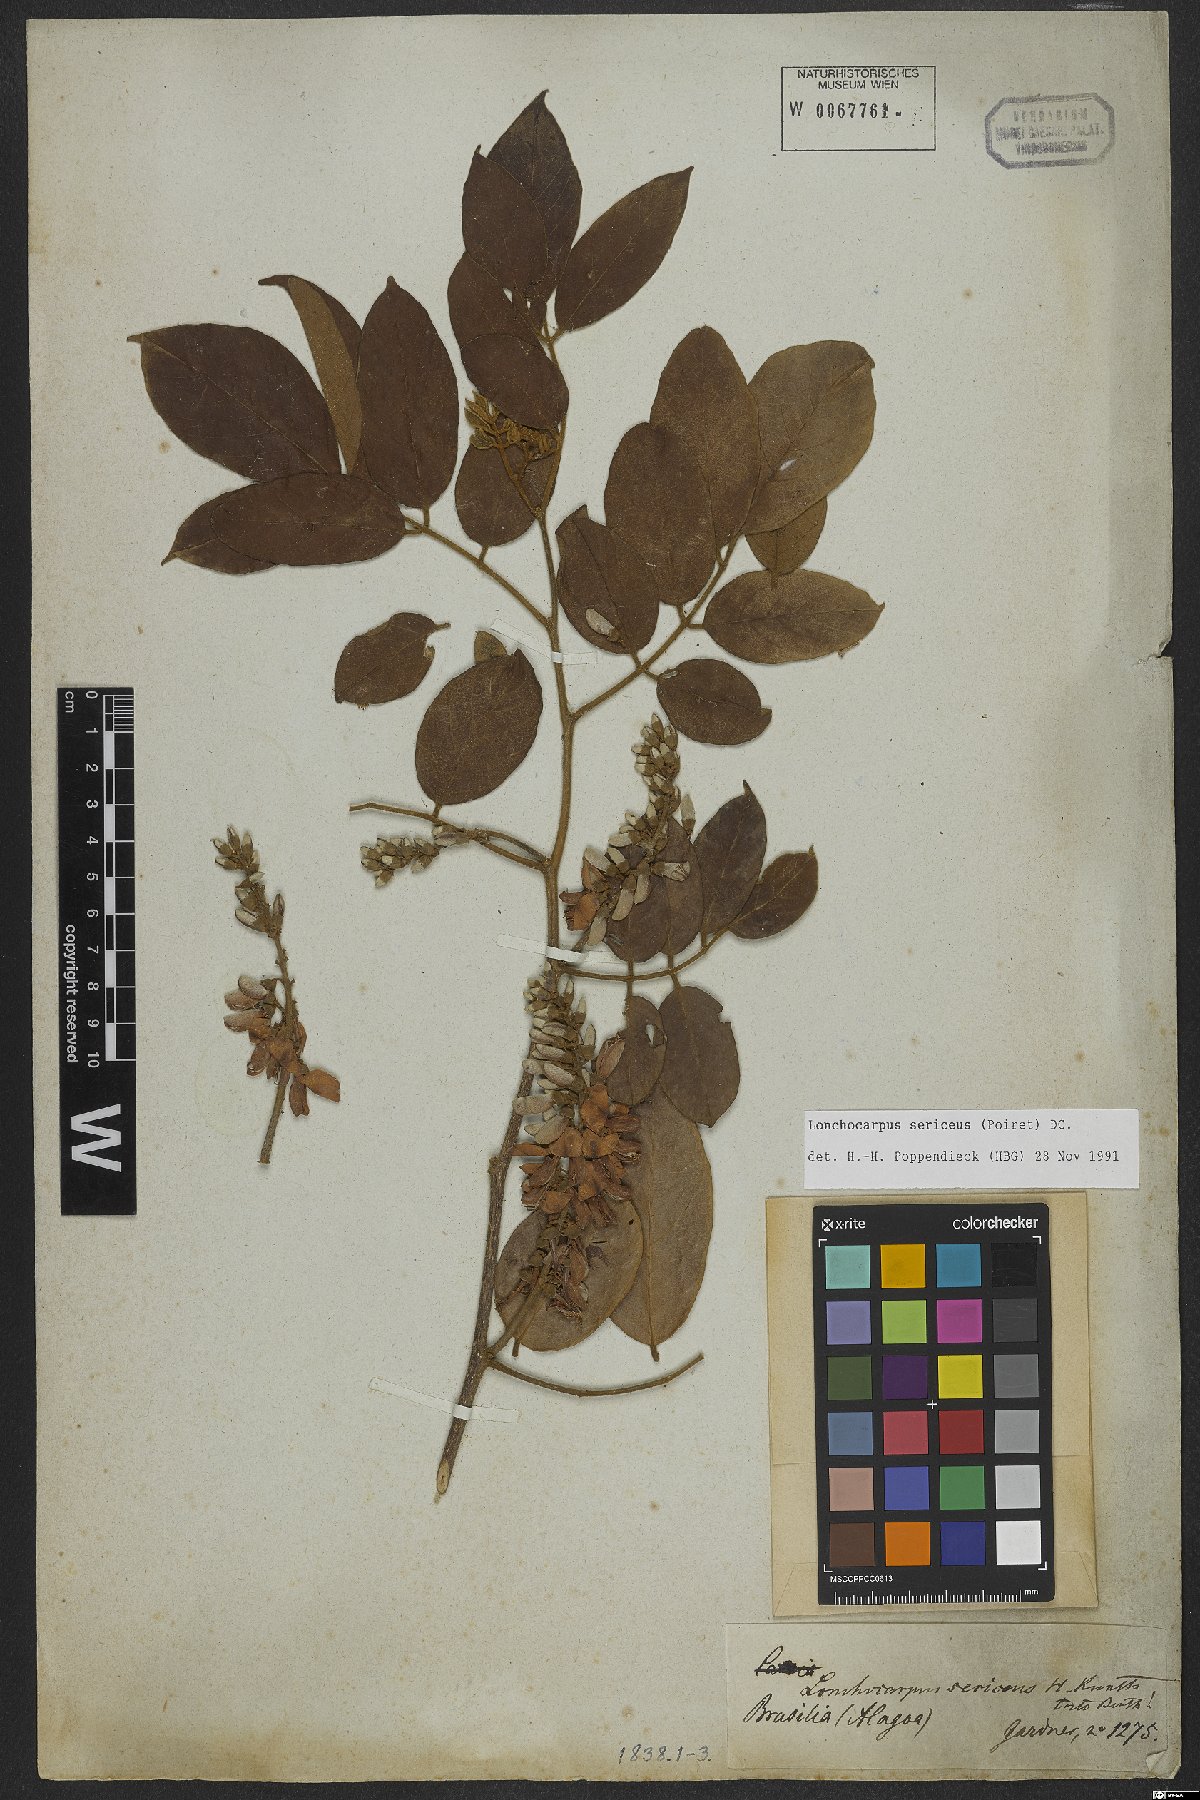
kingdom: Plantae
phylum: Tracheophyta
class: Magnoliopsida
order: Fabales
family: Fabaceae
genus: Lonchocarpus
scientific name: Lonchocarpus sericeus
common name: Savonette
